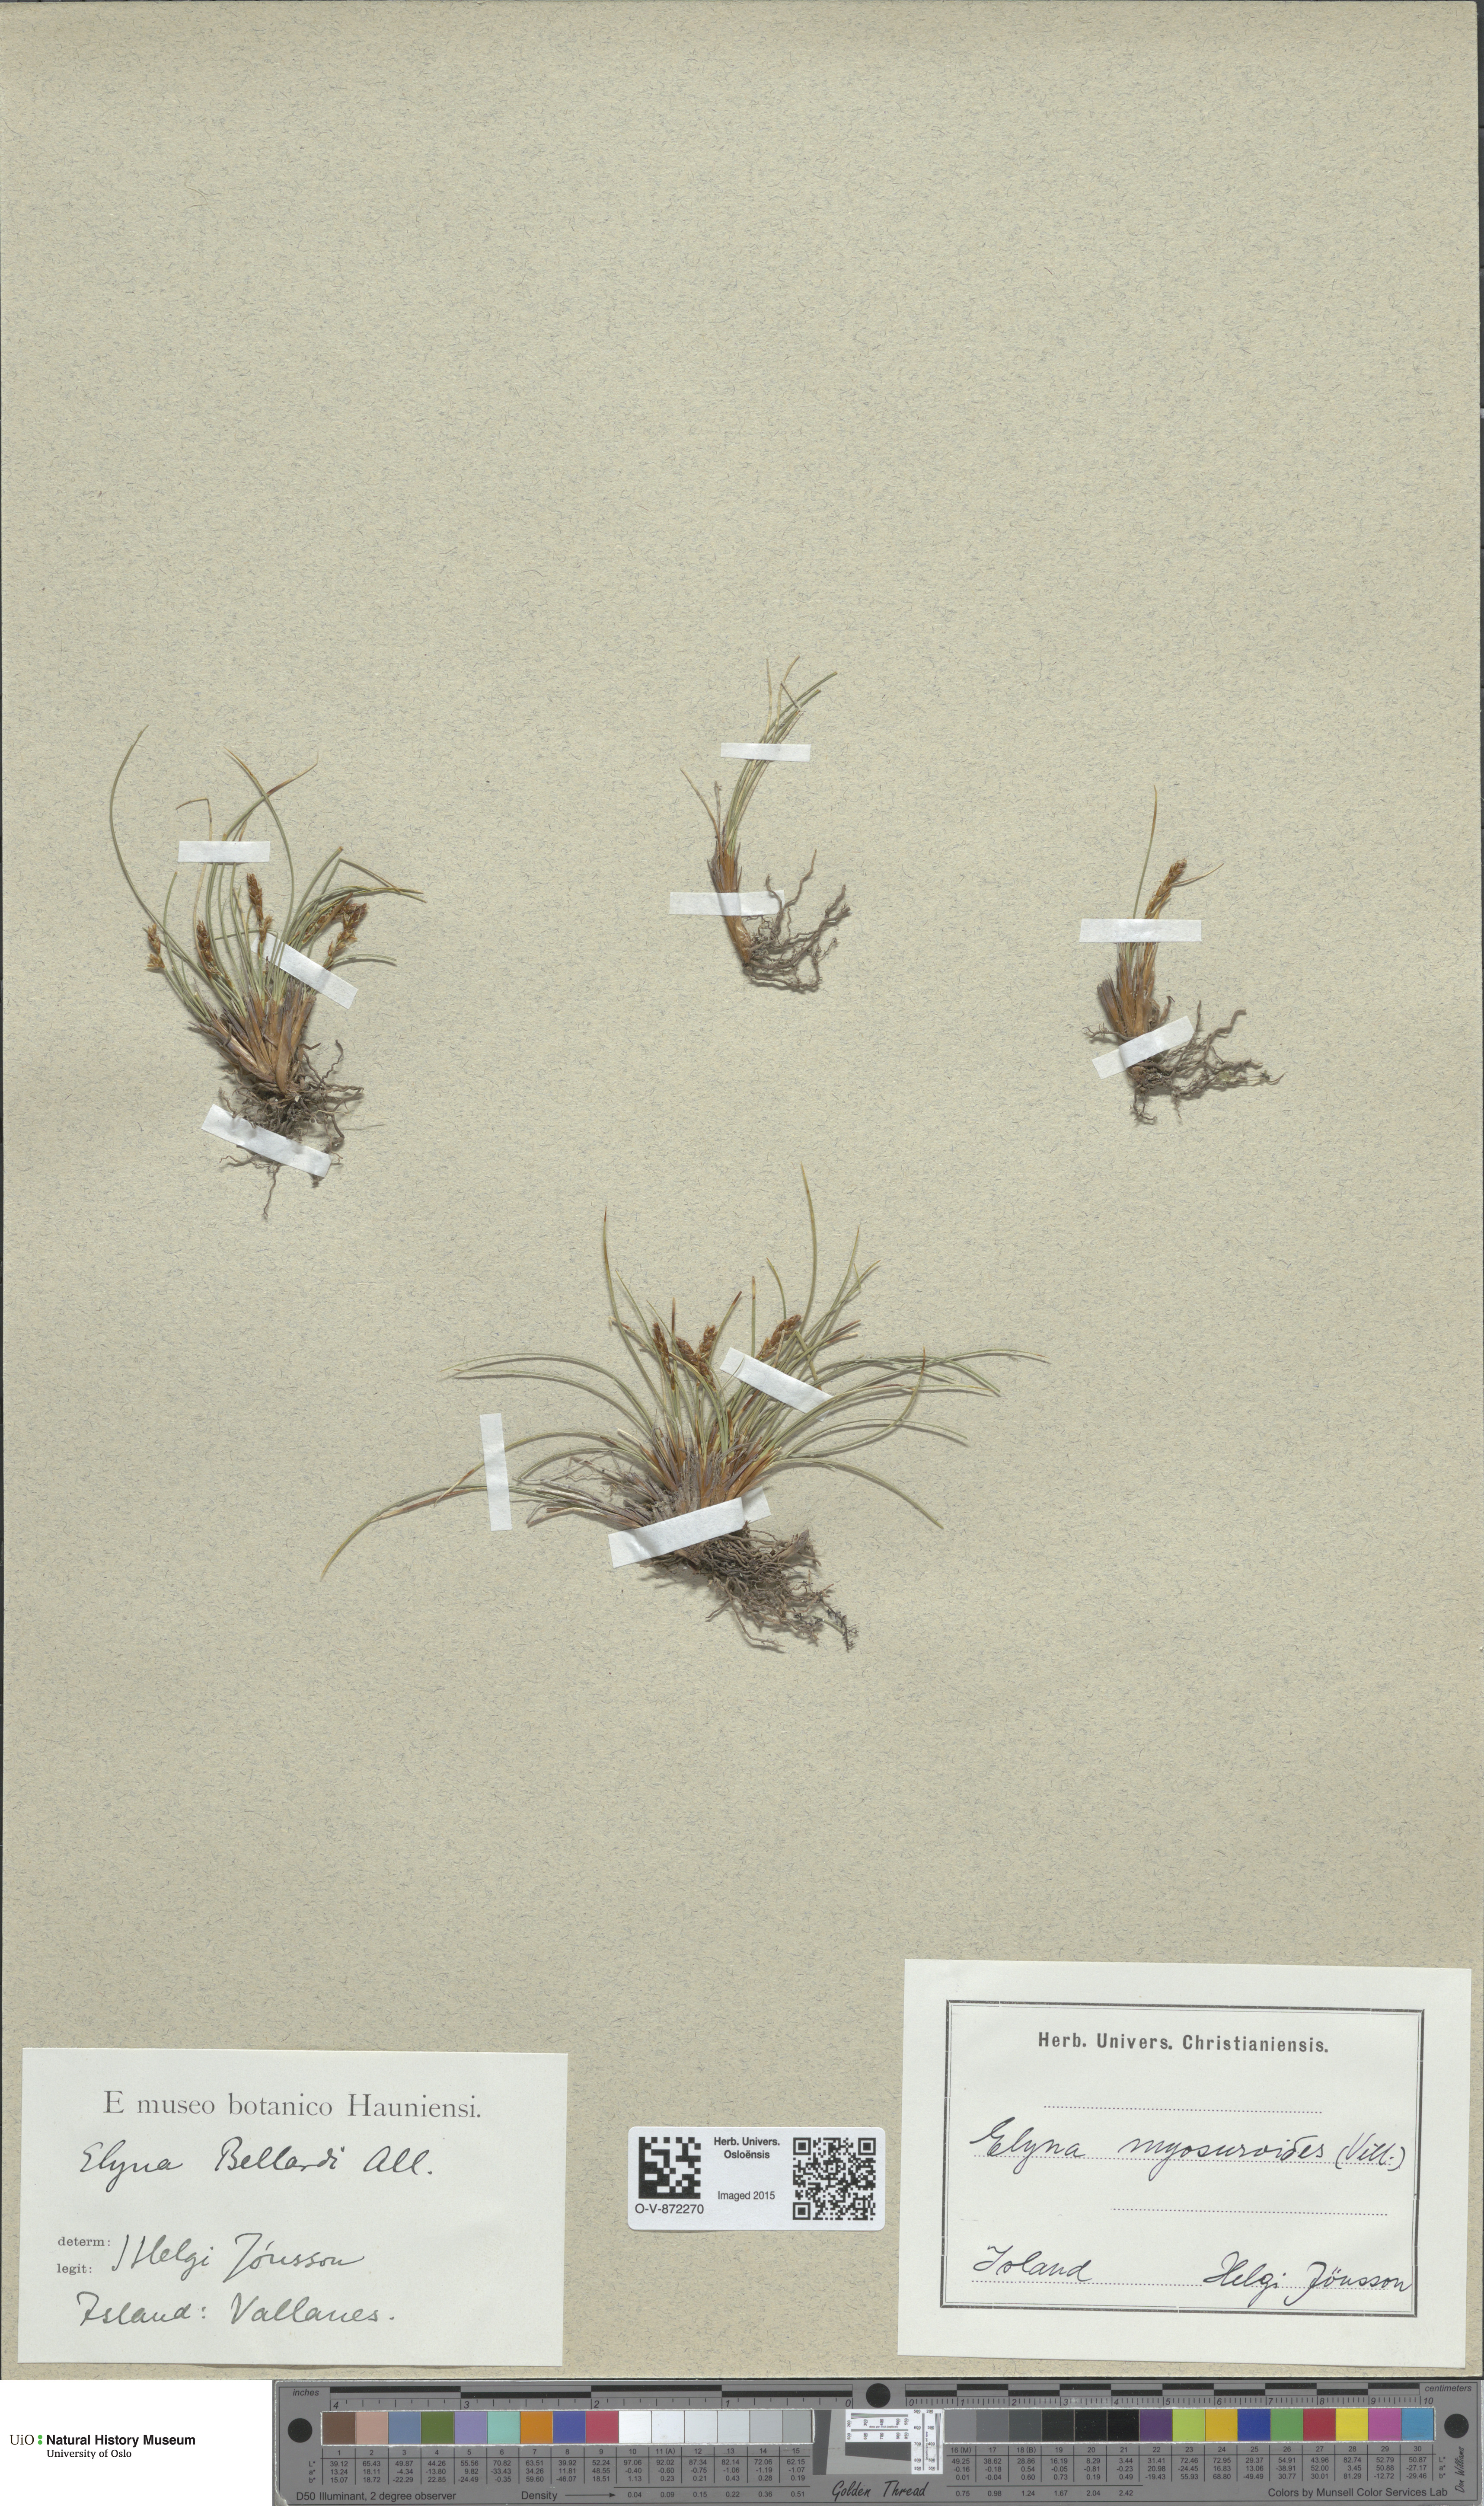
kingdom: Plantae
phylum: Tracheophyta
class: Liliopsida
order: Poales
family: Cyperaceae
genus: Carex
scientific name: Carex myosuroides
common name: Bellard's bog sedge
